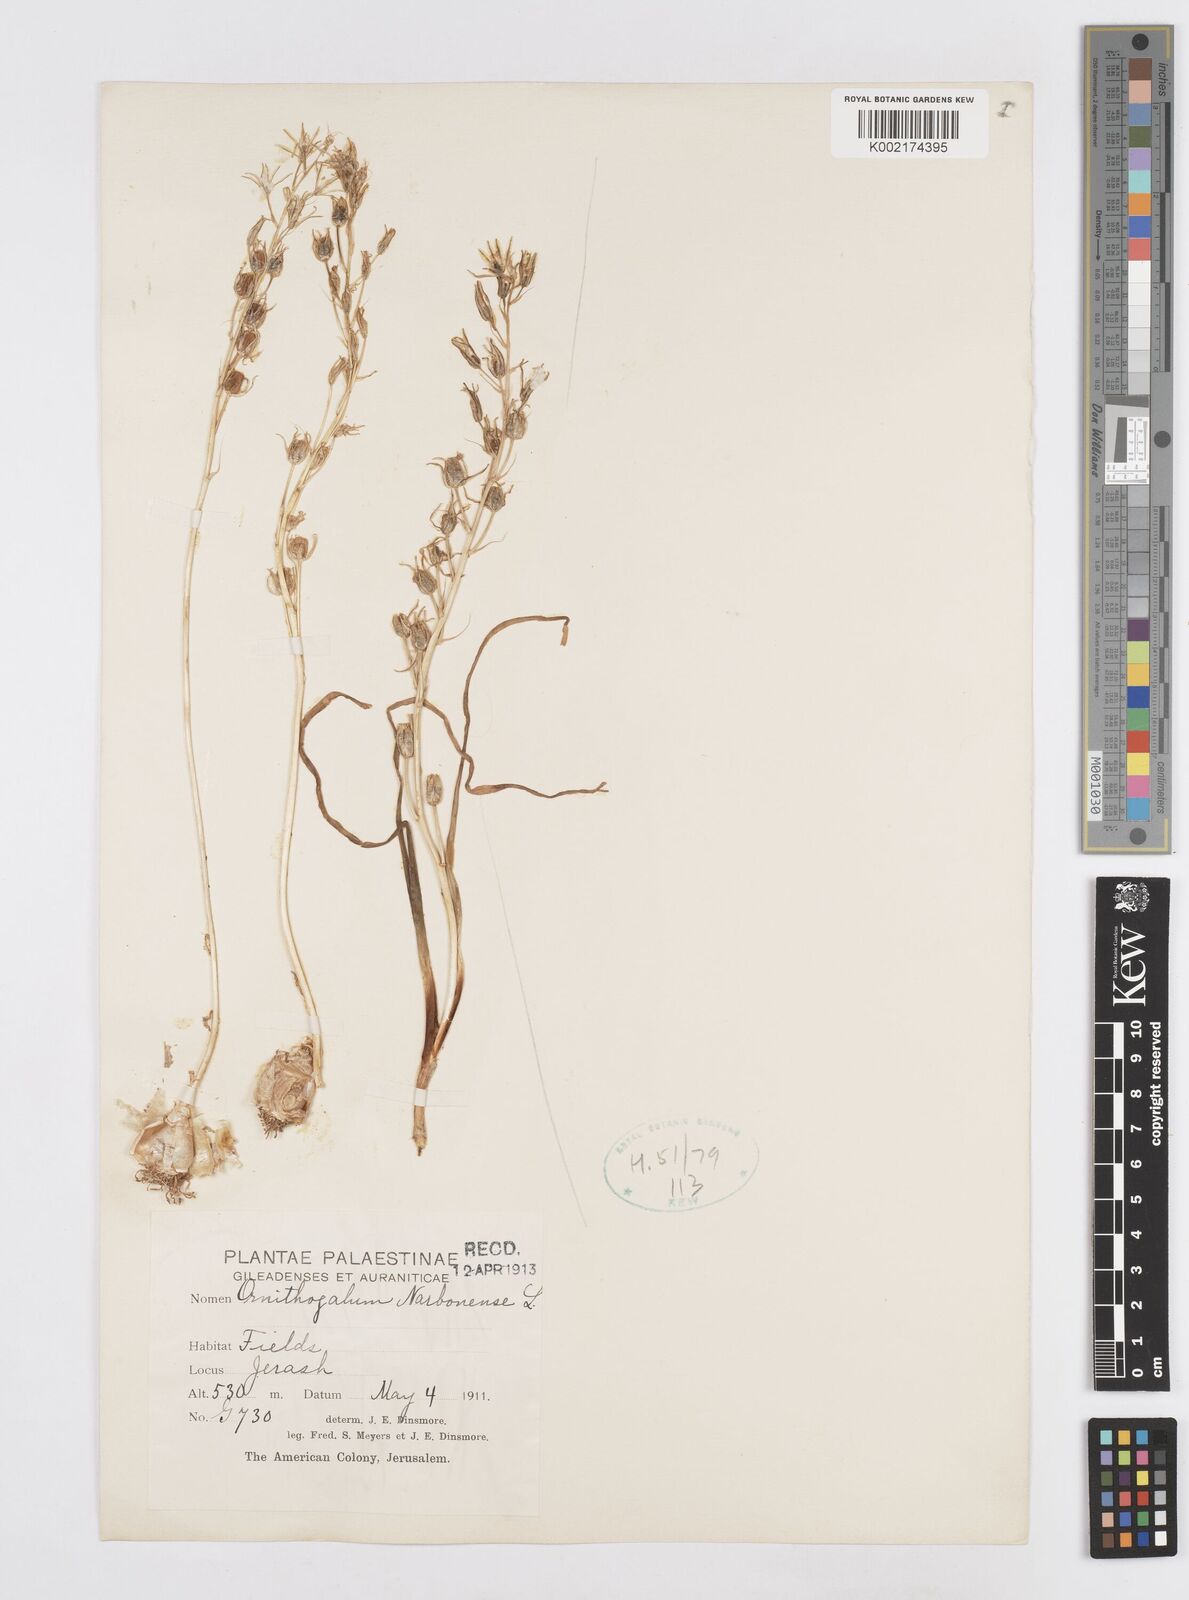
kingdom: Plantae
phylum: Tracheophyta
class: Liliopsida
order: Asparagales
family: Asparagaceae
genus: Ornithogalum
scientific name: Ornithogalum narbonense
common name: Bath-asparagus
